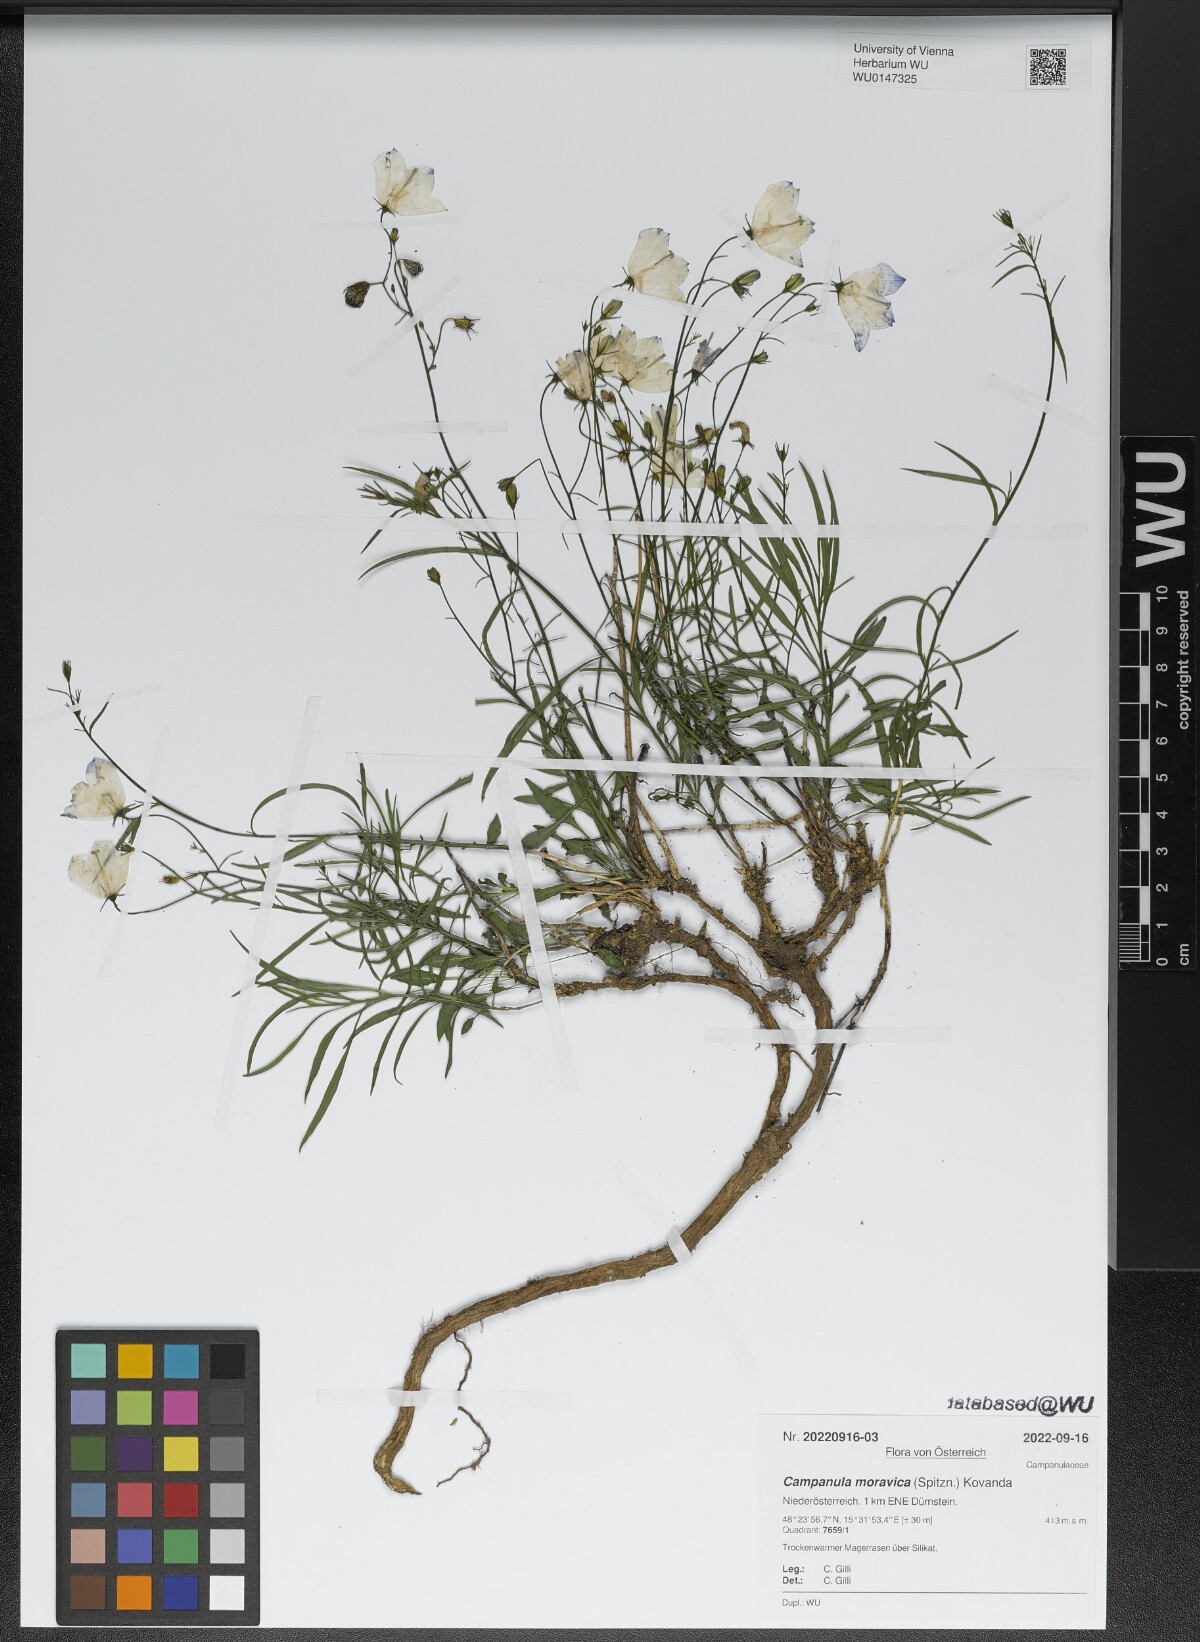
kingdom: Plantae
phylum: Tracheophyta
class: Magnoliopsida
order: Asterales
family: Campanulaceae
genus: Campanula
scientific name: Campanula moravica
